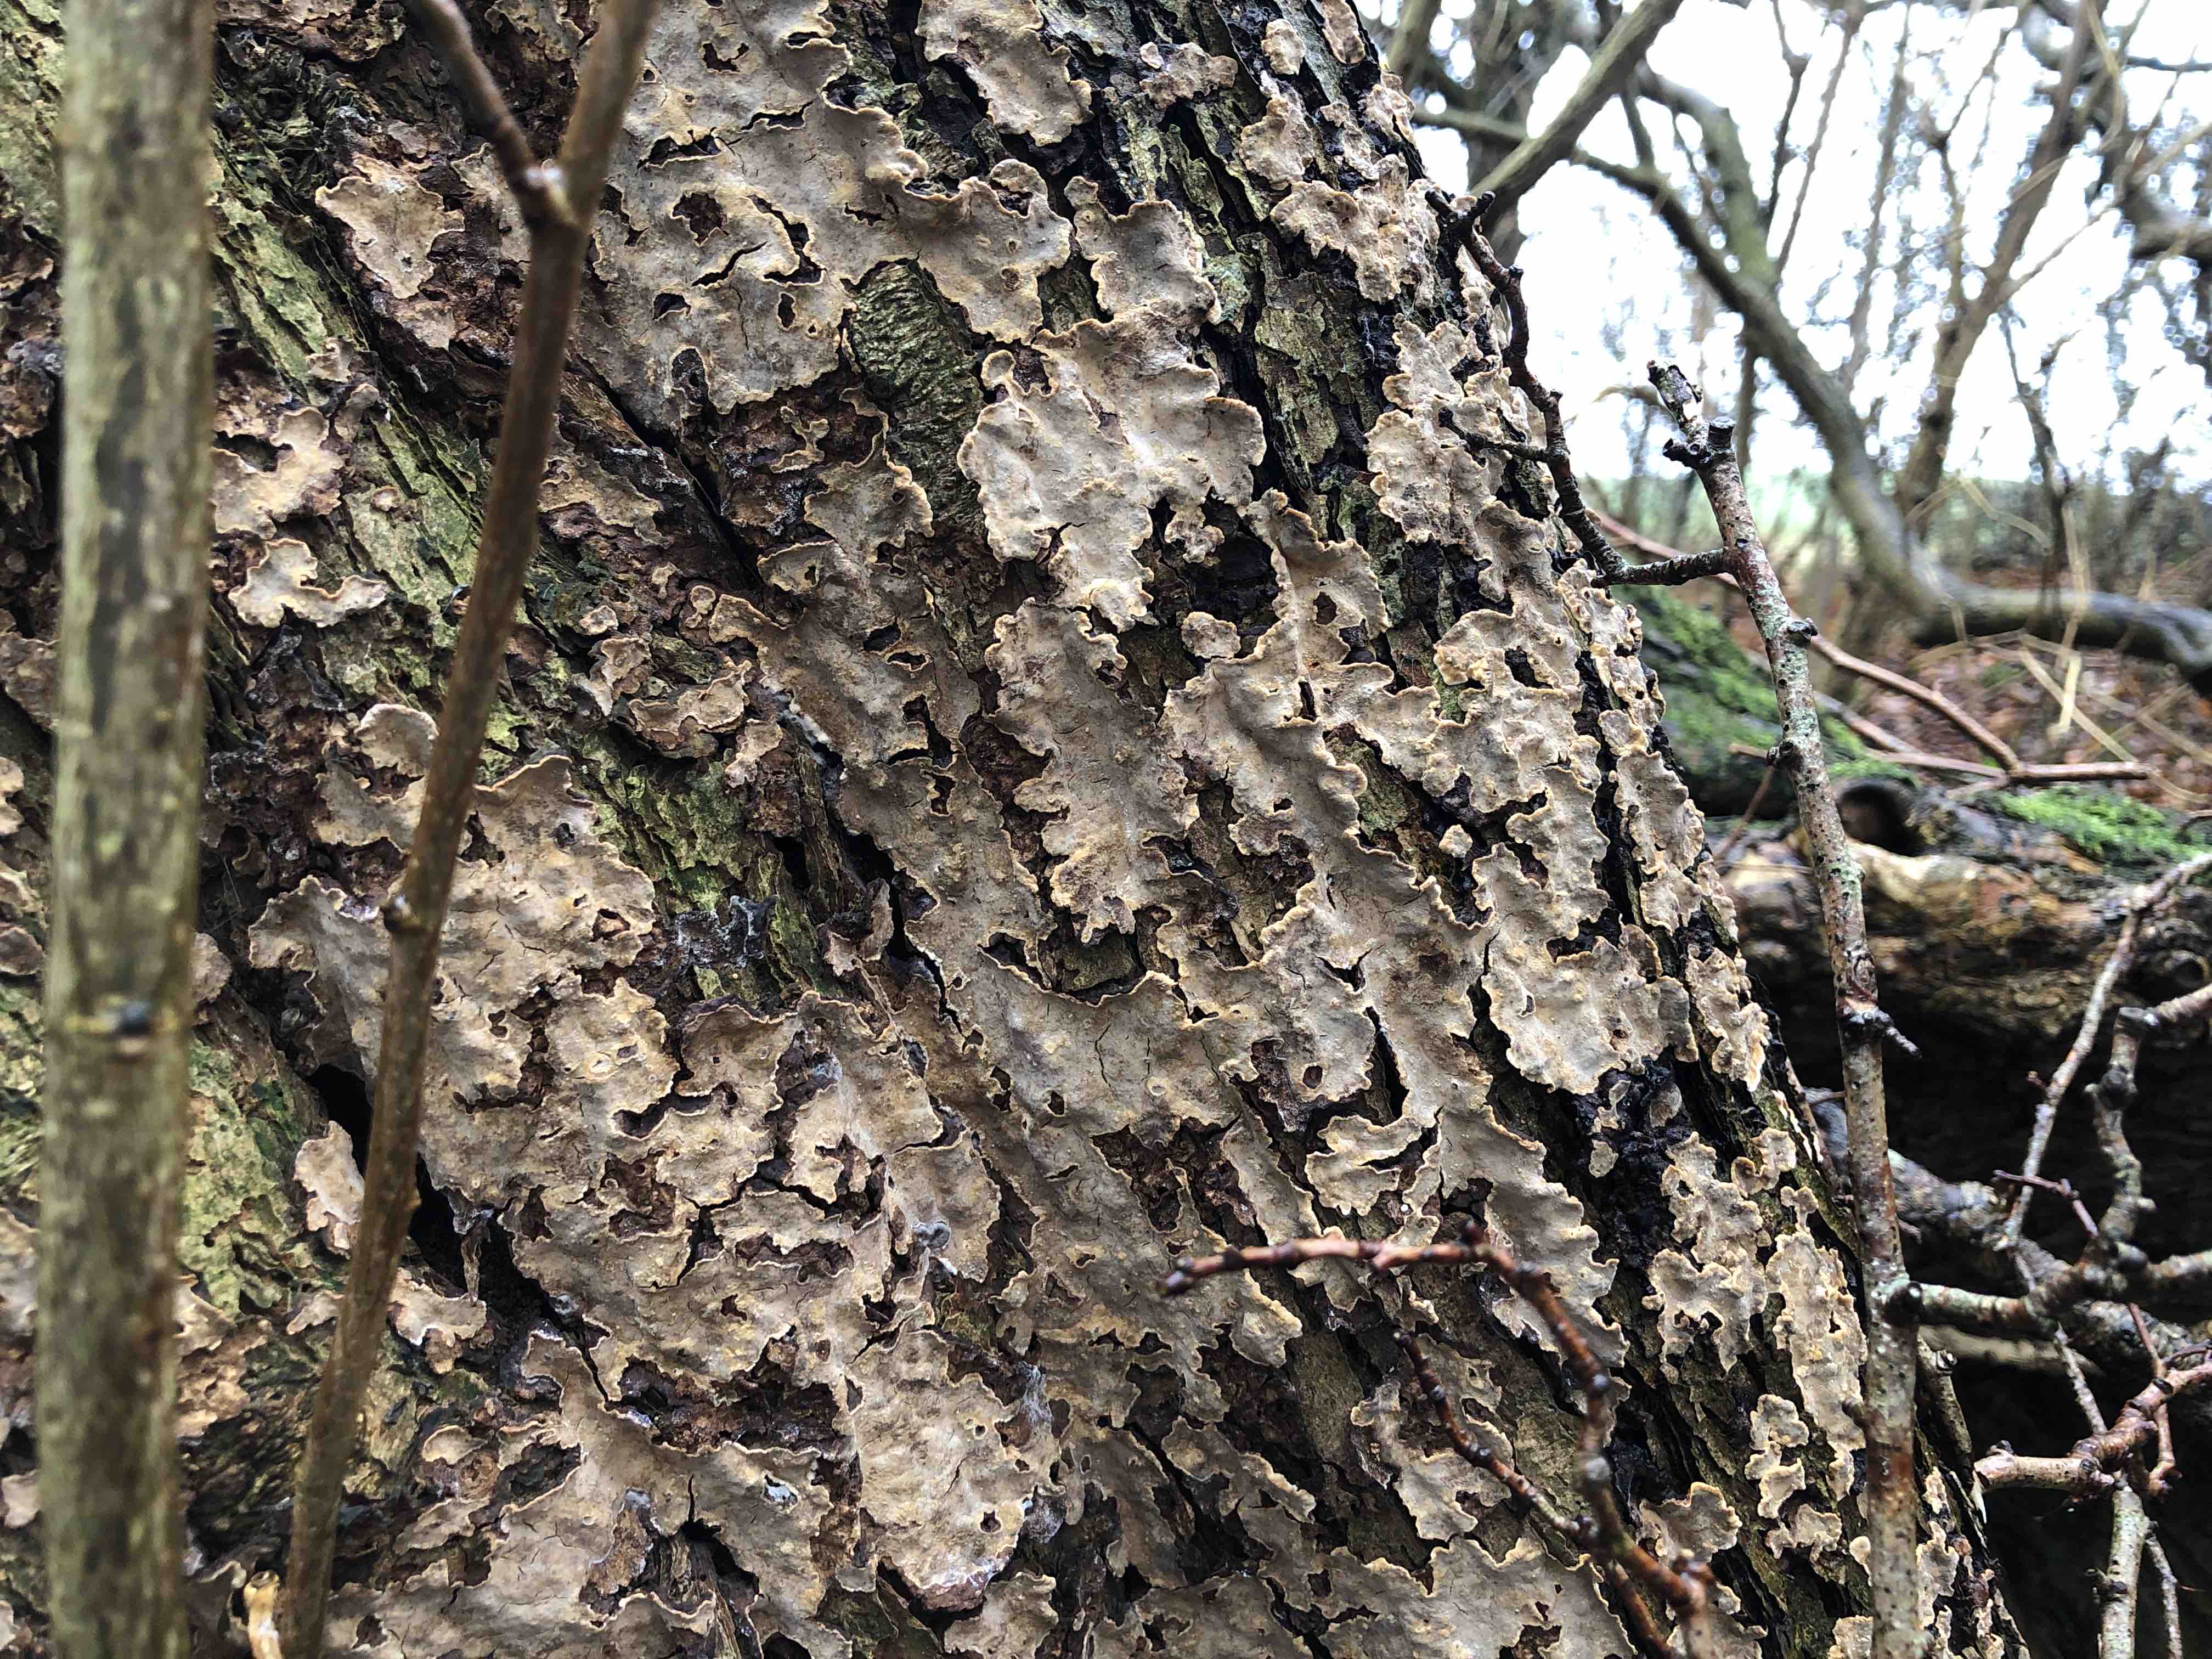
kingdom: Fungi
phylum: Basidiomycota
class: Agaricomycetes
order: Russulales
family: Stereaceae
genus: Stereum
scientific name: Stereum rugosum
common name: rynket lædersvamp
